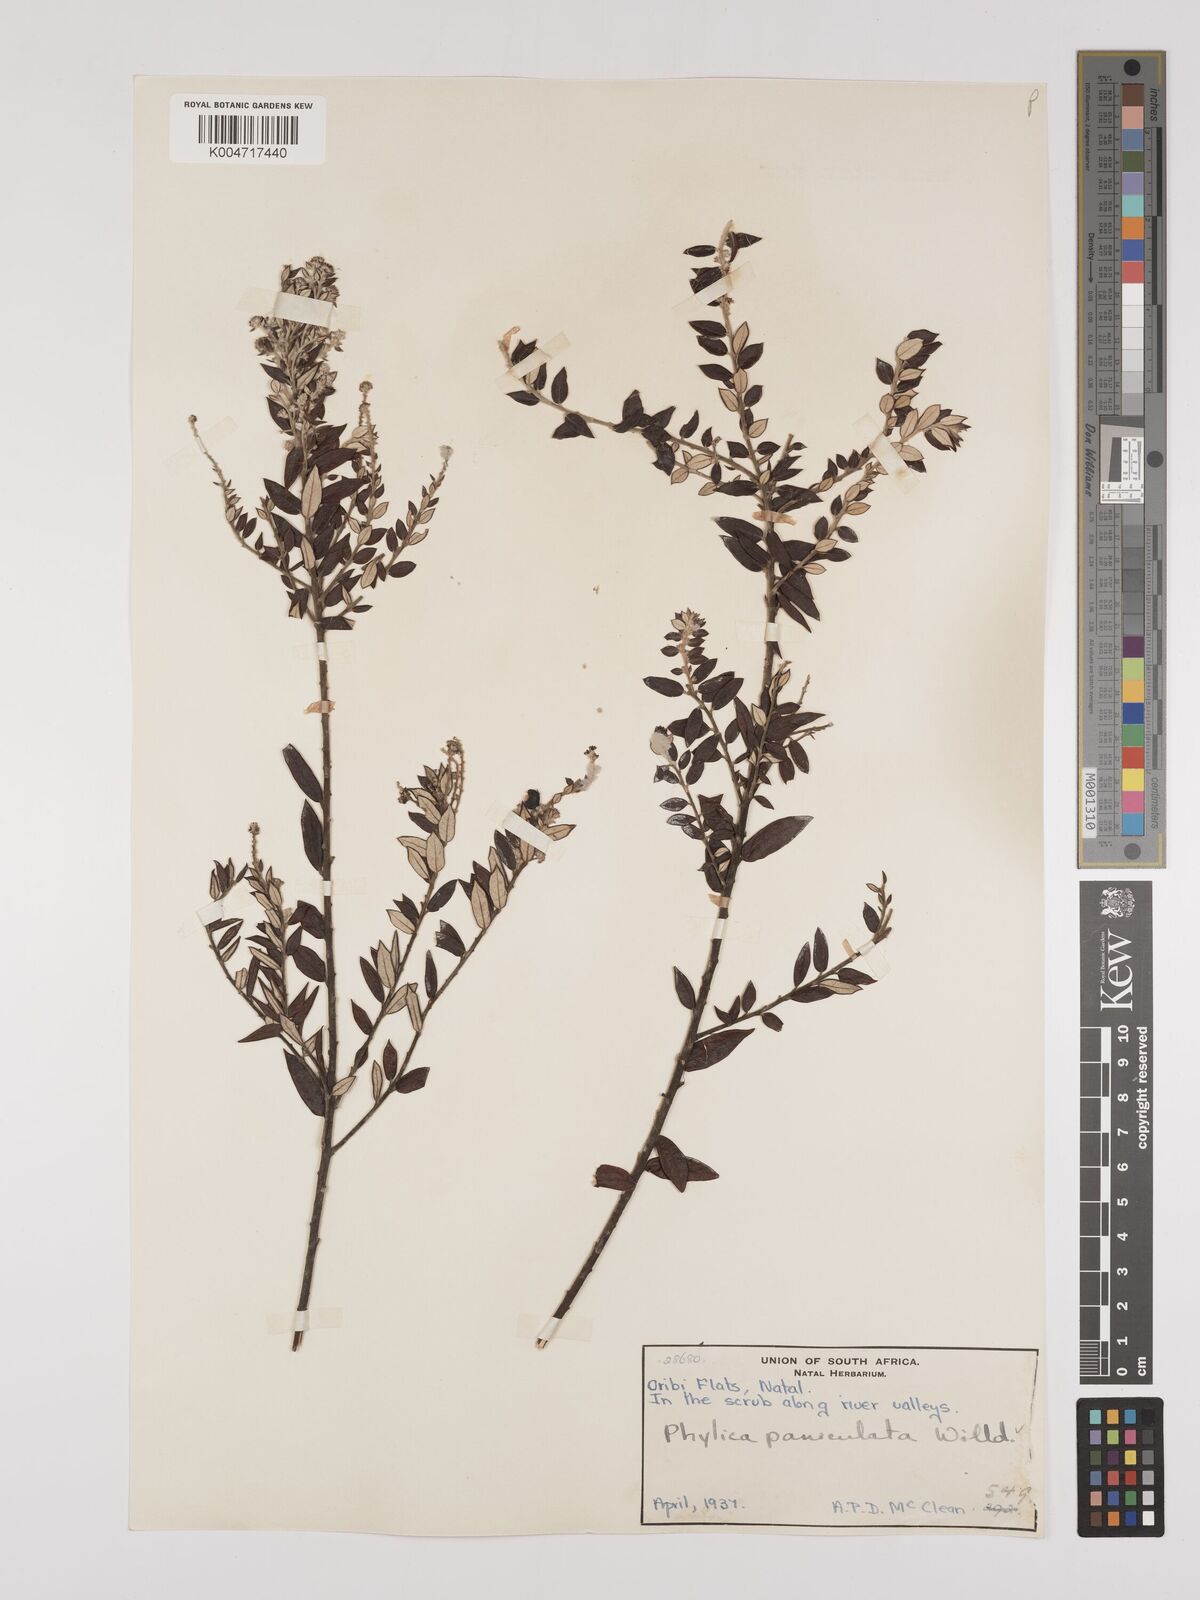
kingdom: Plantae
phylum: Tracheophyta
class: Magnoliopsida
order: Rosales
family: Rhamnaceae
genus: Phylica
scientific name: Phylica paniculata
